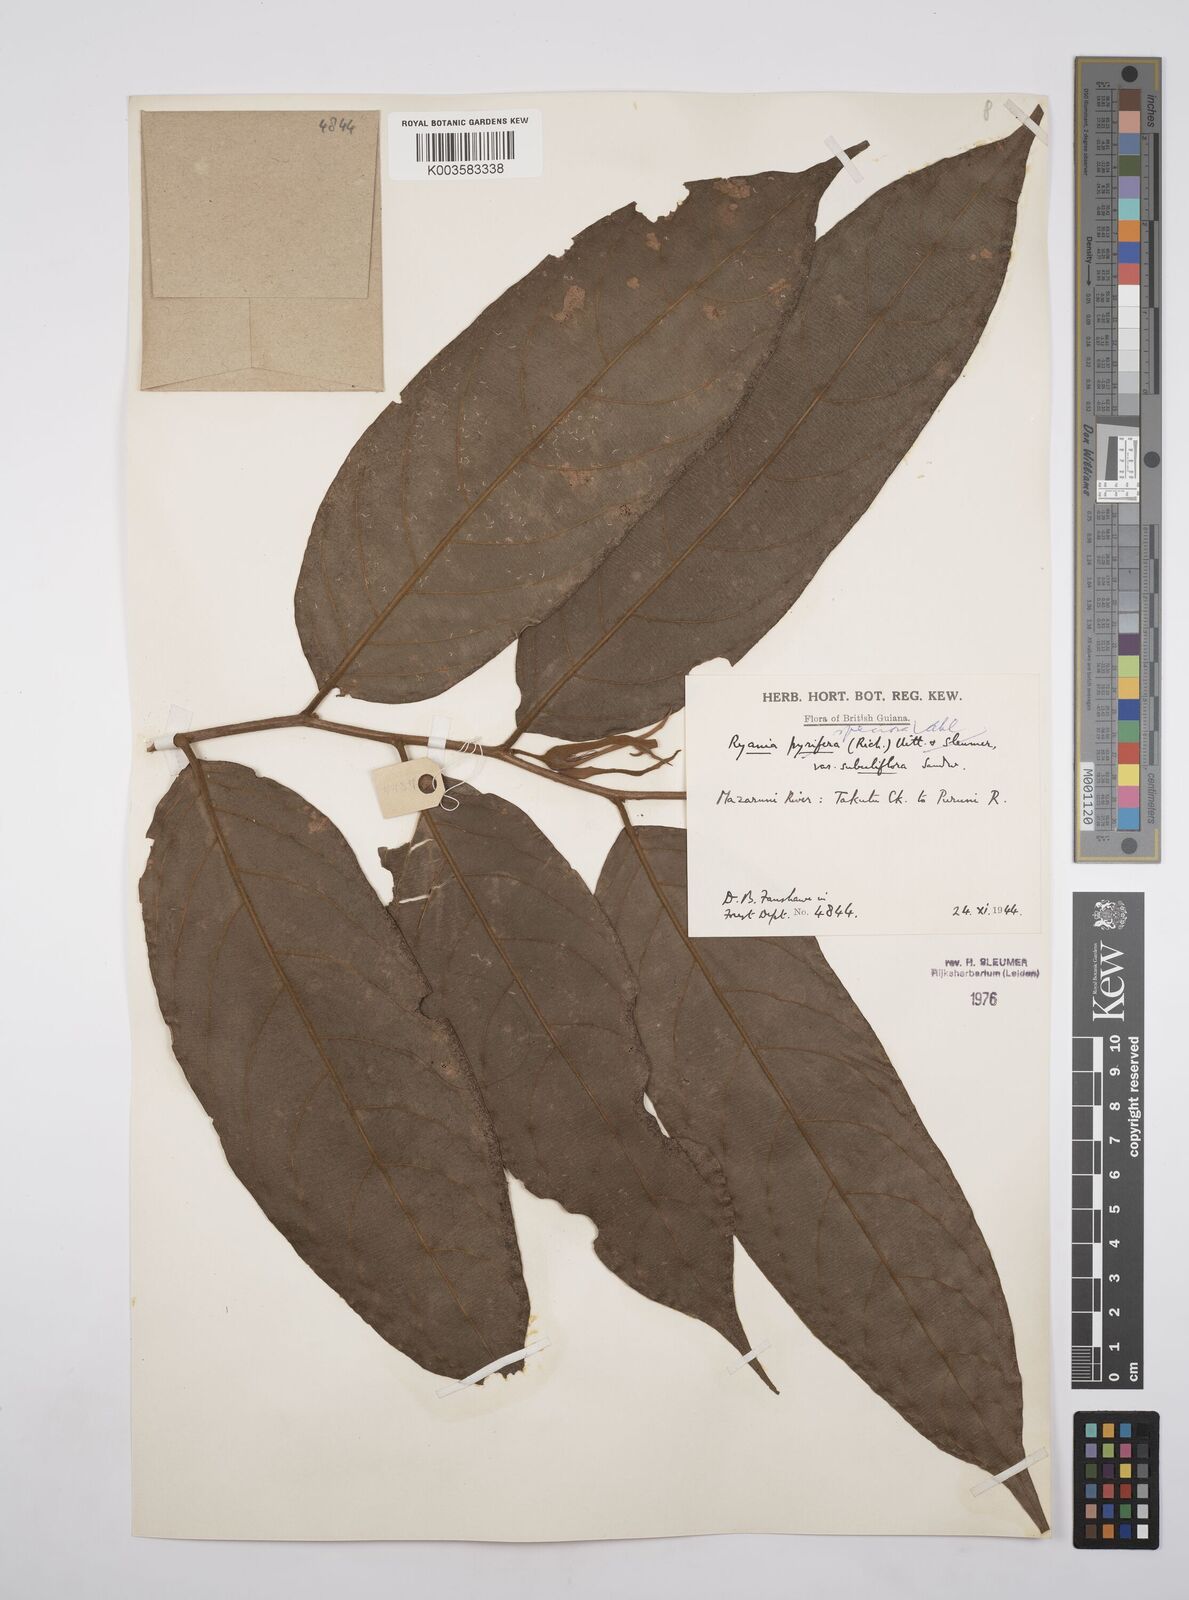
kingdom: Plantae
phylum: Tracheophyta
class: Magnoliopsida
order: Malpighiales
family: Salicaceae
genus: Ryania
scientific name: Ryania speciosa
